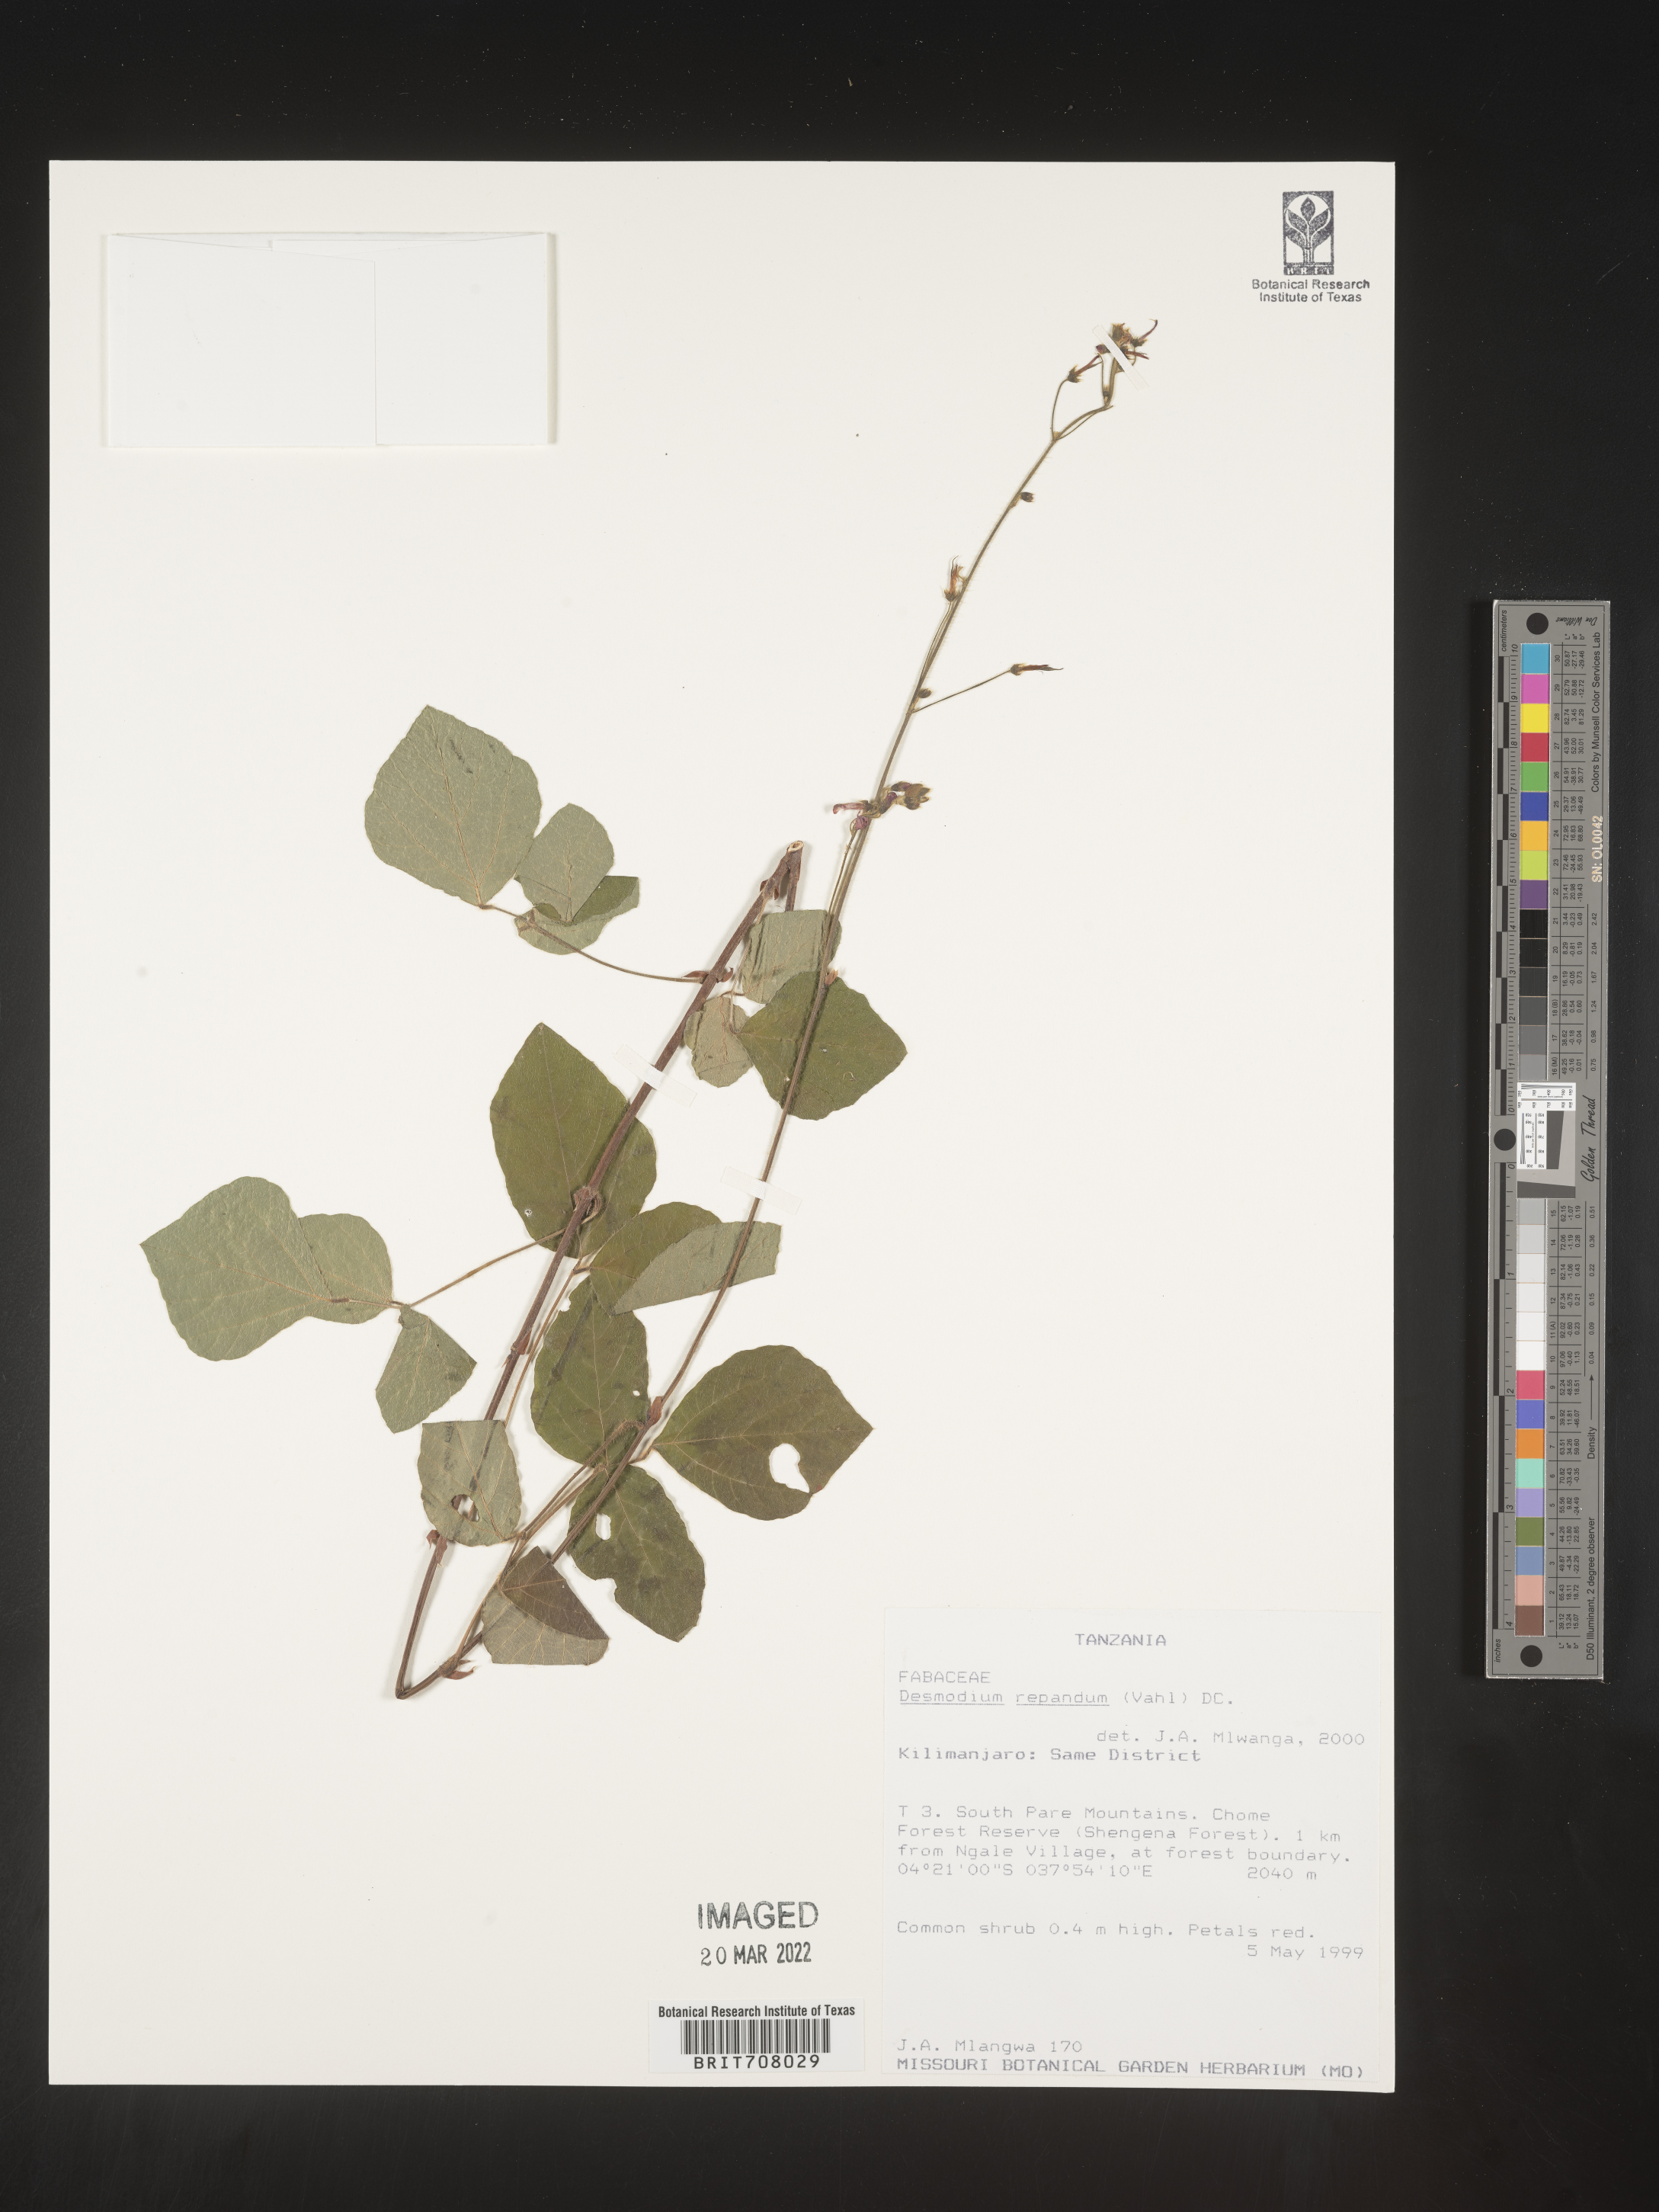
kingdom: Plantae
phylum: Tracheophyta
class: Magnoliopsida
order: Fabales
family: Fabaceae
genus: Desmodium
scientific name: Desmodium
